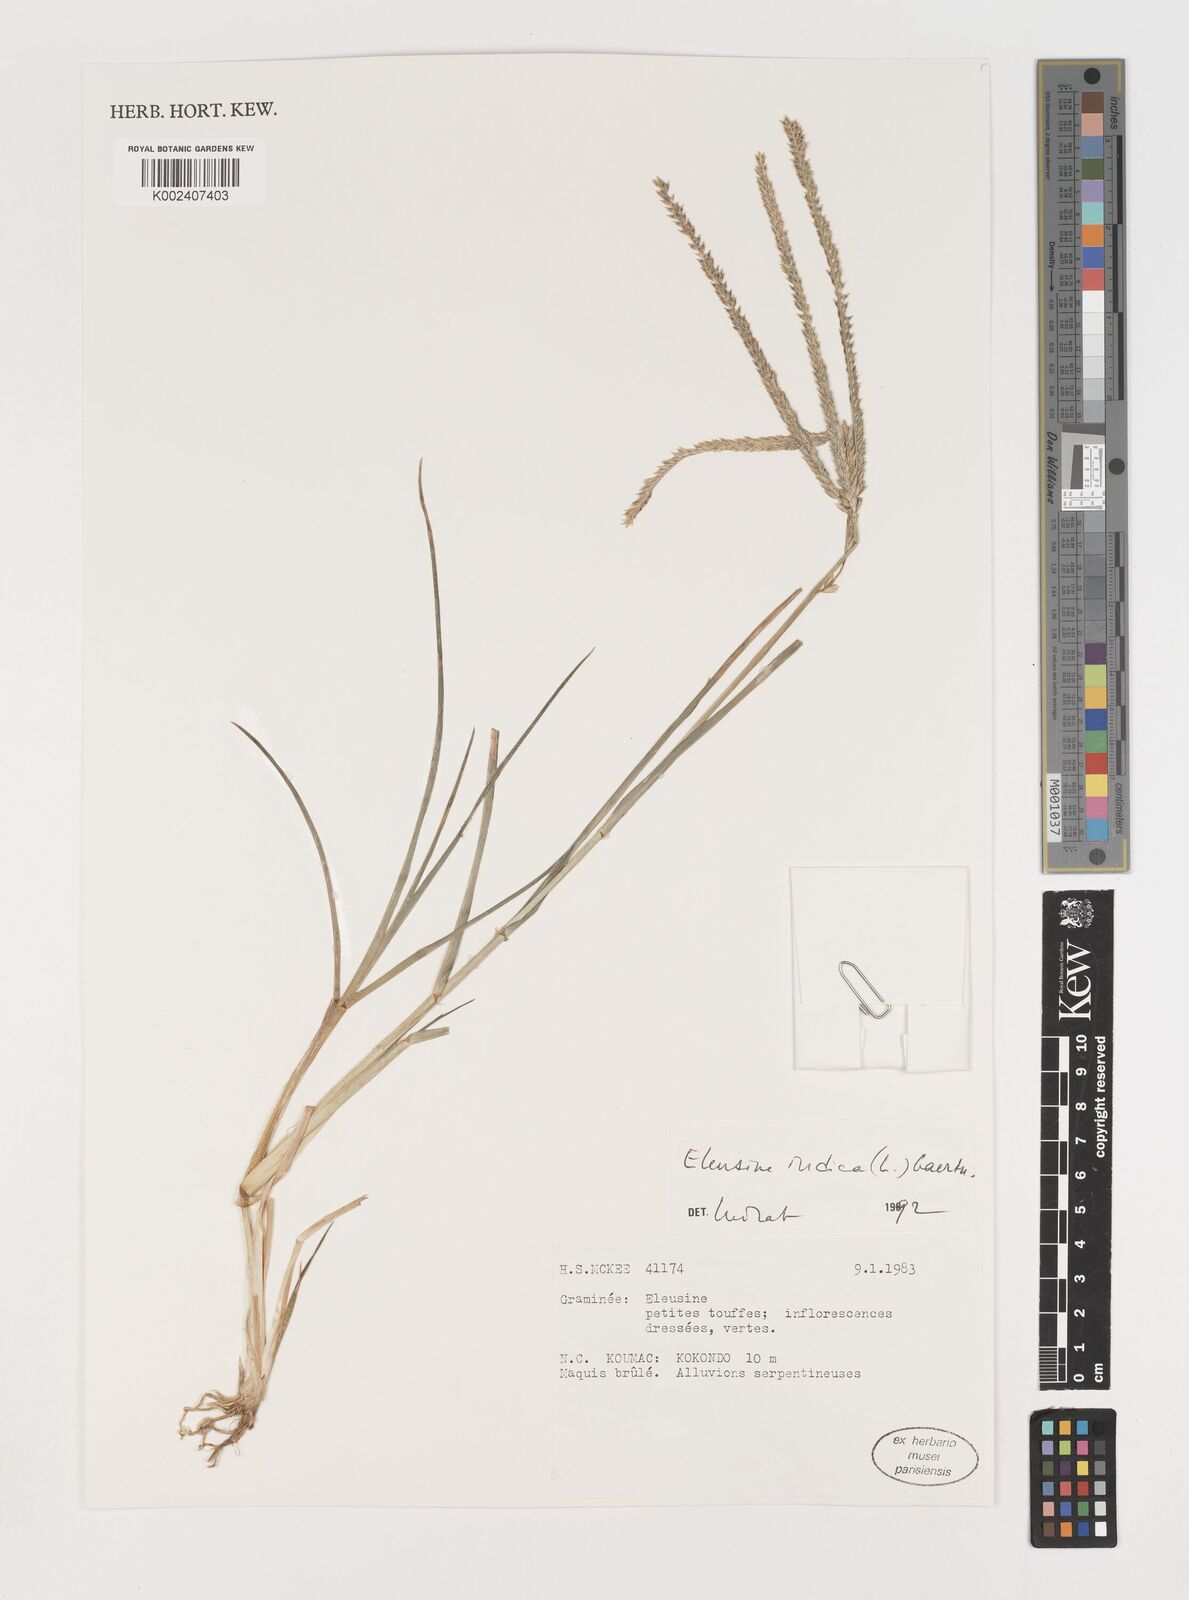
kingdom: Plantae
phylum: Tracheophyta
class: Liliopsida
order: Poales
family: Poaceae
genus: Eleusine
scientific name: Eleusine indica
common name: Yard-grass
